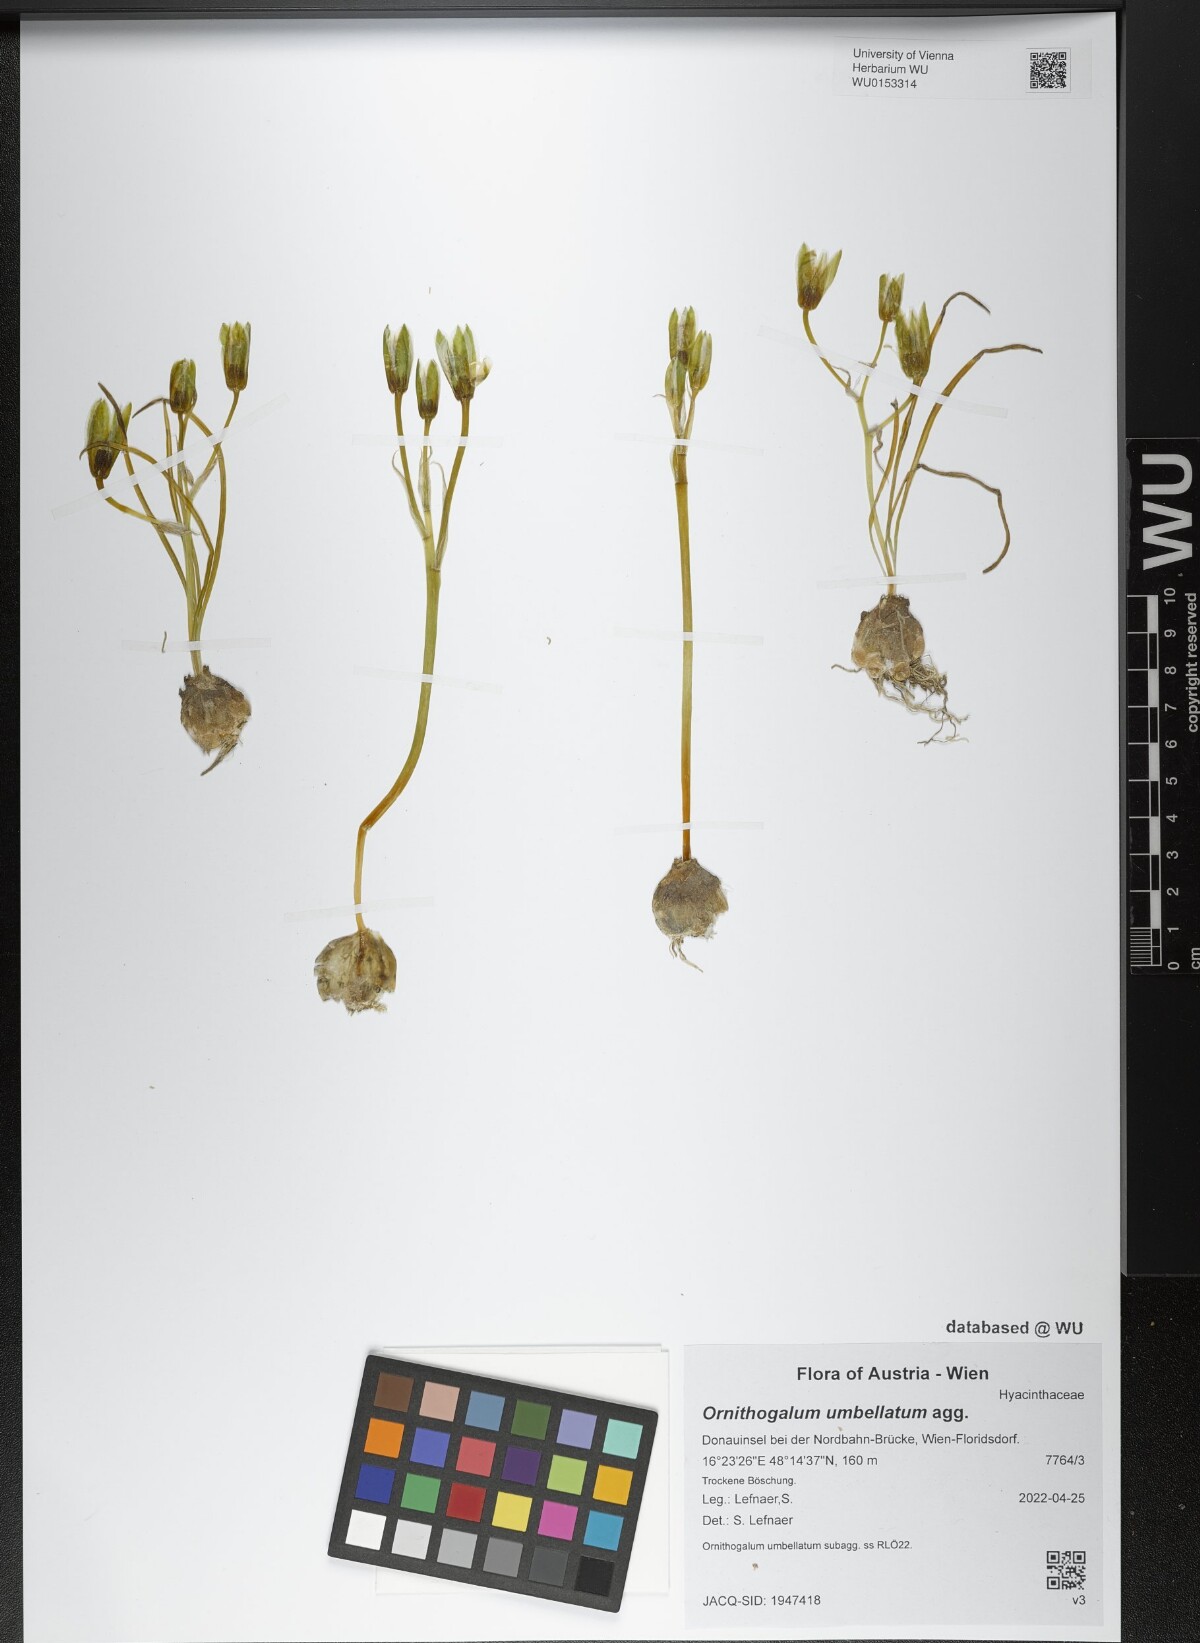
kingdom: Plantae
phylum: Tracheophyta
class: Liliopsida
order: Asparagales
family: Asparagaceae
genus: Ornithogalum
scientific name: Ornithogalum umbellatum
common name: Garden star-of-bethlehem
